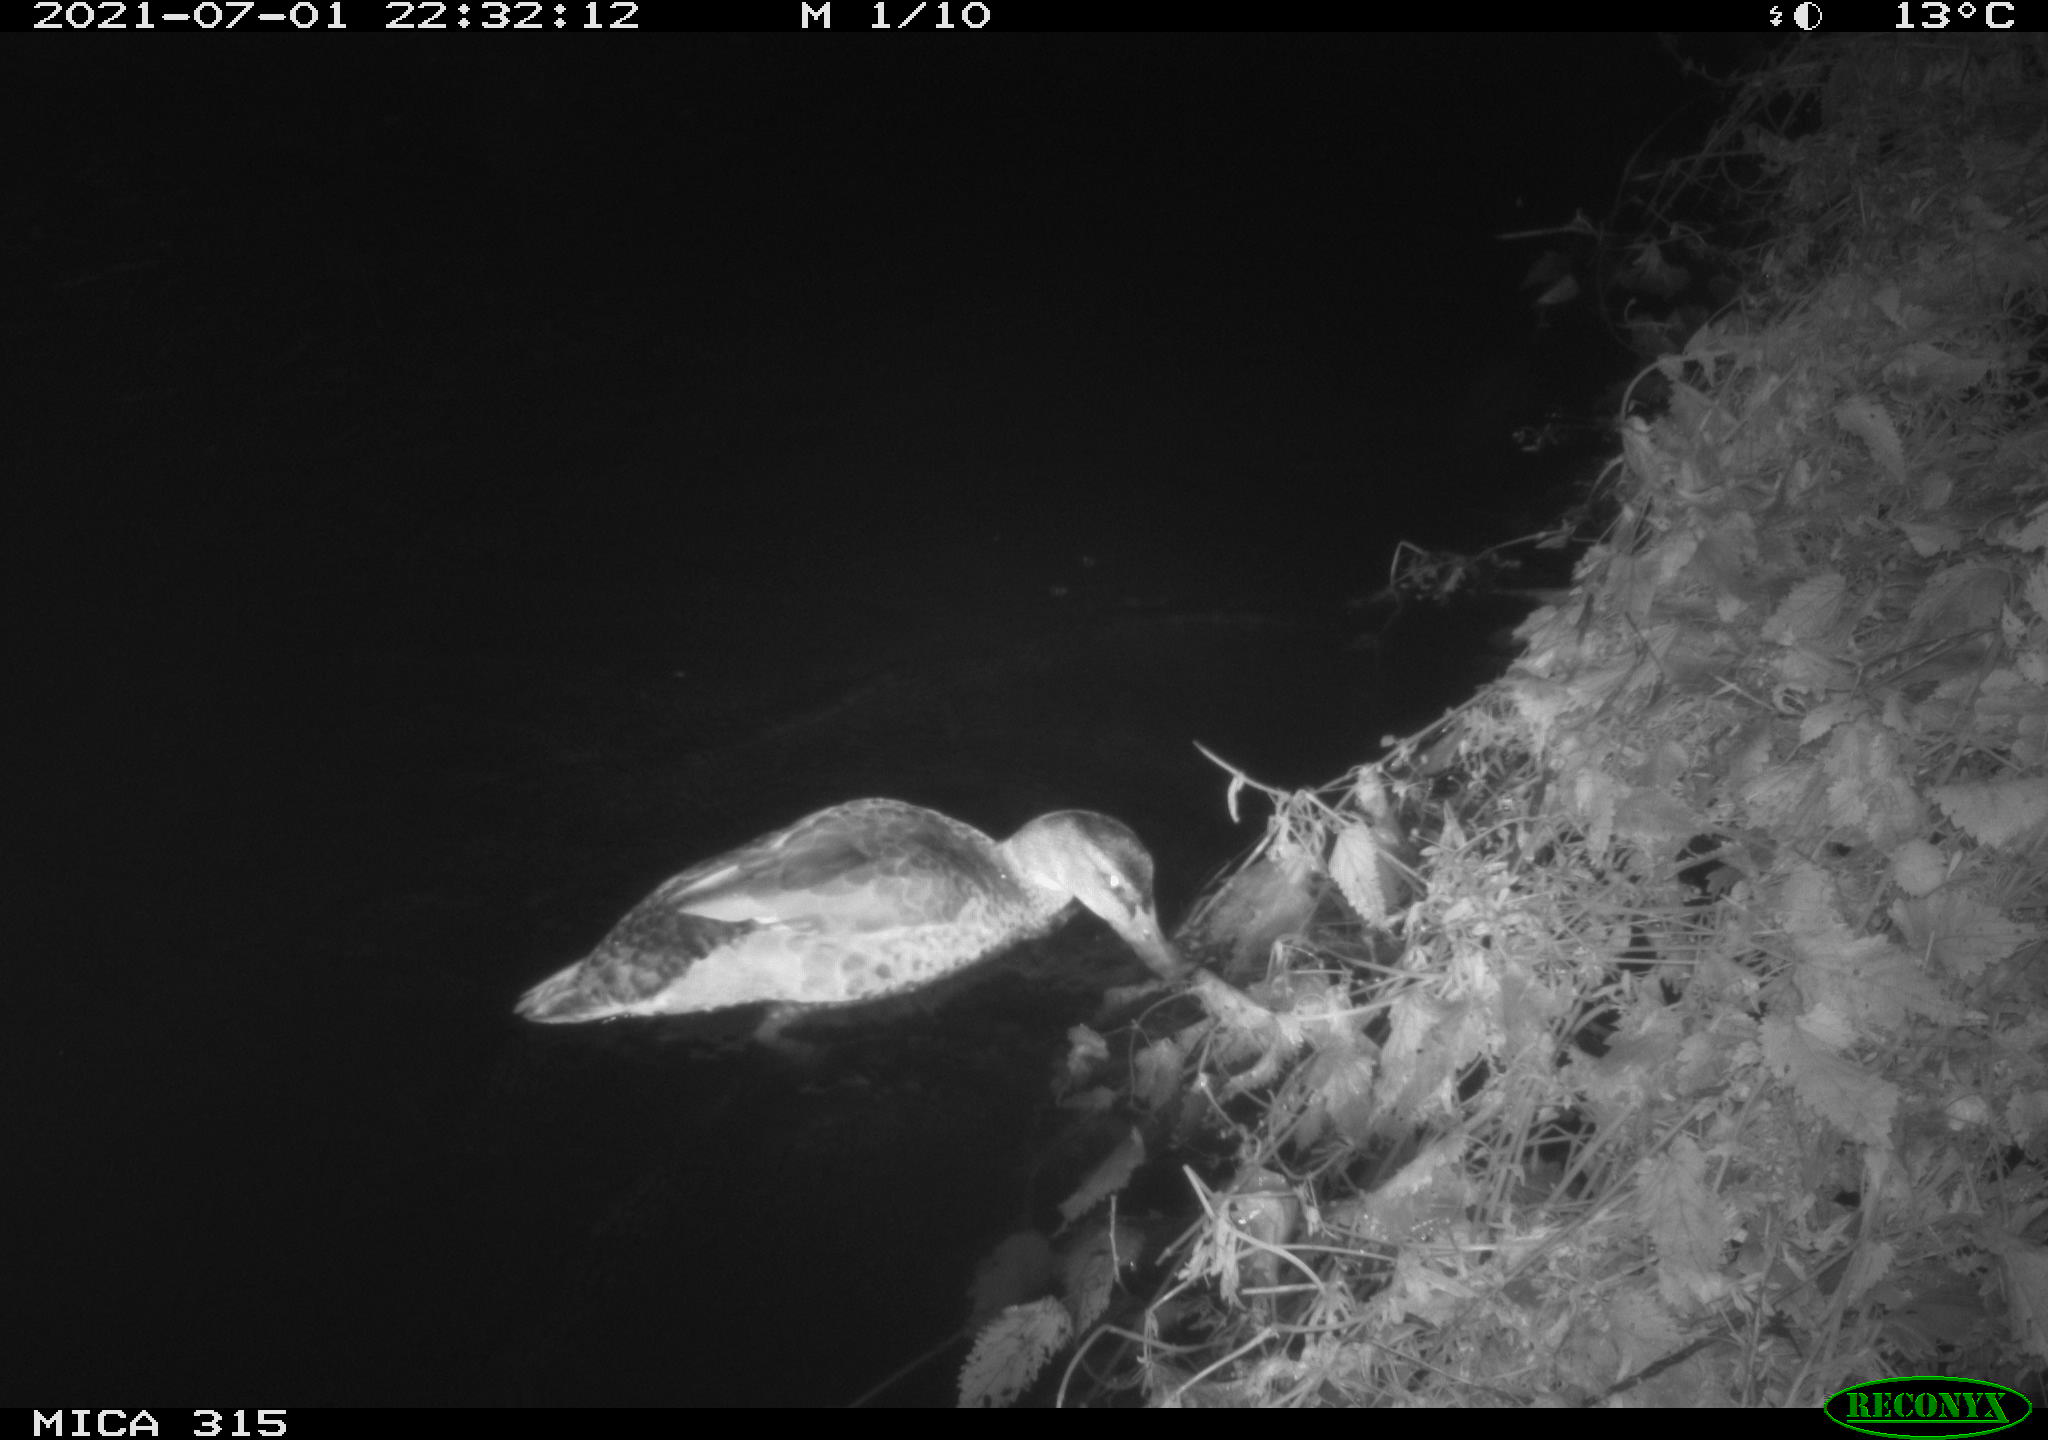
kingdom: Animalia
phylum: Chordata
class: Aves
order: Anseriformes
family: Anatidae
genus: Anas
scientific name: Anas platyrhynchos
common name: Mallard
